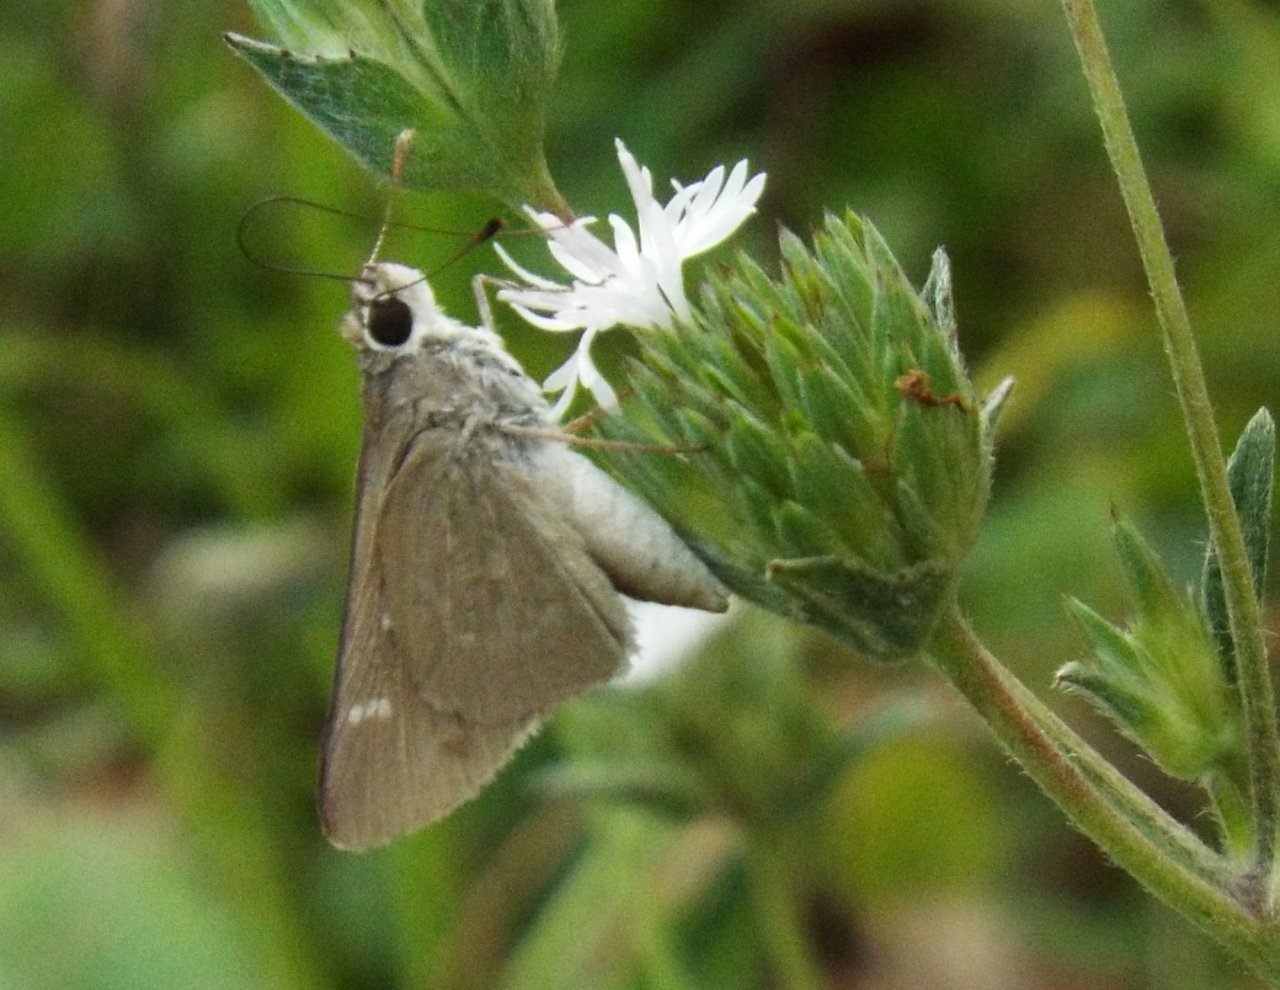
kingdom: Animalia
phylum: Arthropoda
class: Insecta
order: Lepidoptera
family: Hesperiidae
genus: Lerodea
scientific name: Lerodea eufala
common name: Eufala Skipper
